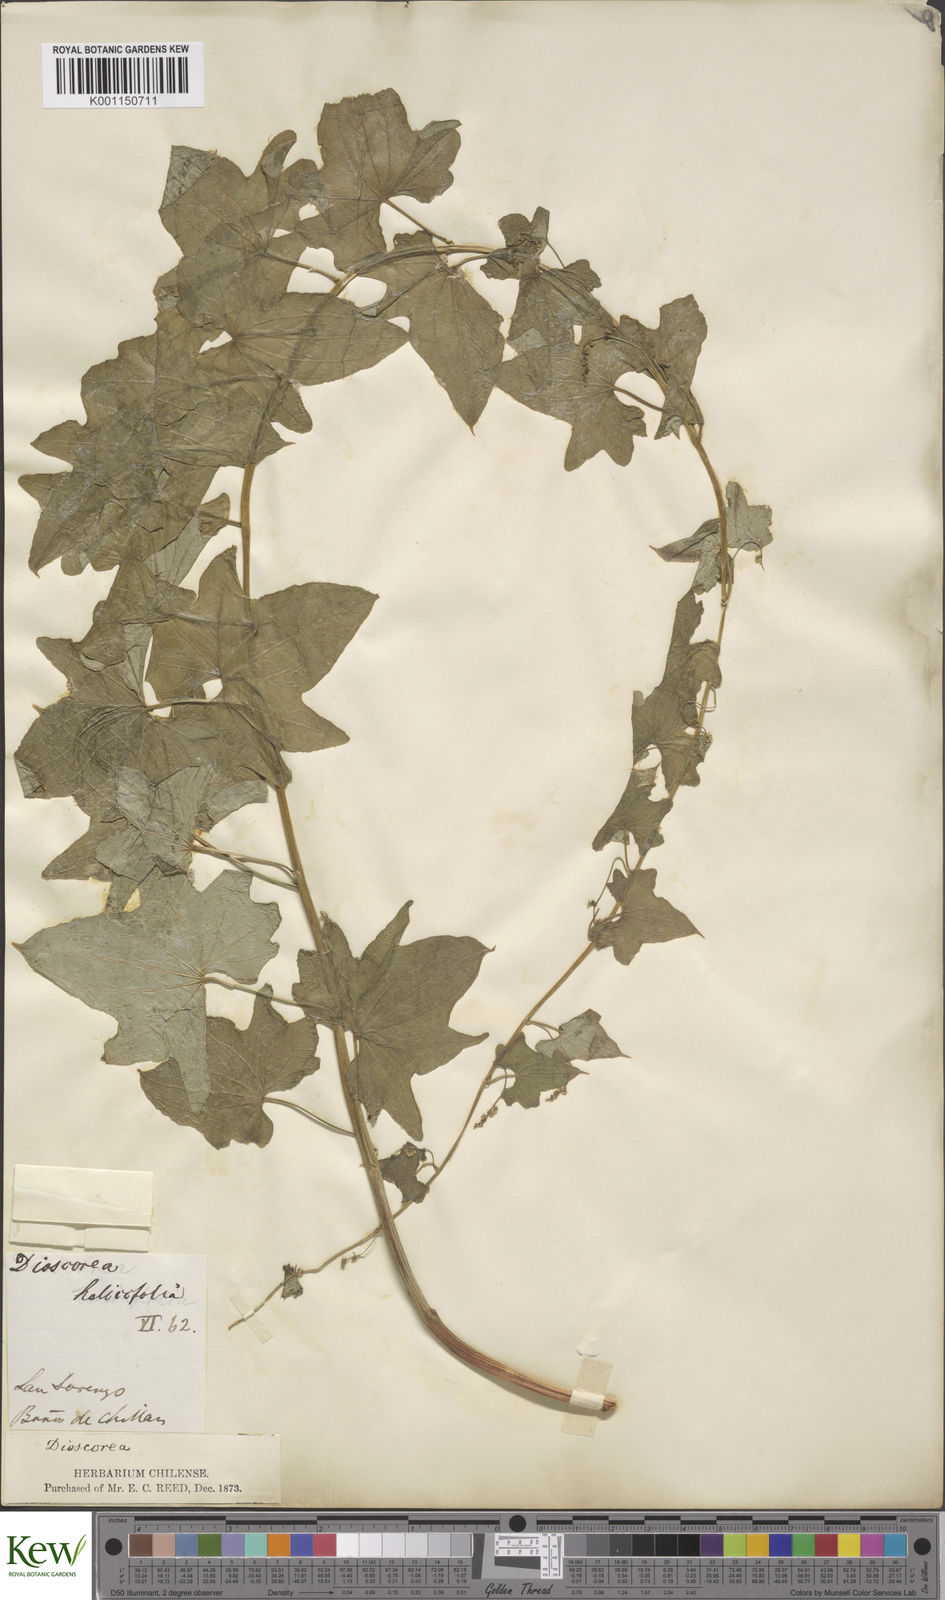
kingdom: Plantae
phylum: Tracheophyta
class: Liliopsida
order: Dioscoreales
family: Dioscoreaceae
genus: Dioscorea
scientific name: Dioscorea reticulata
